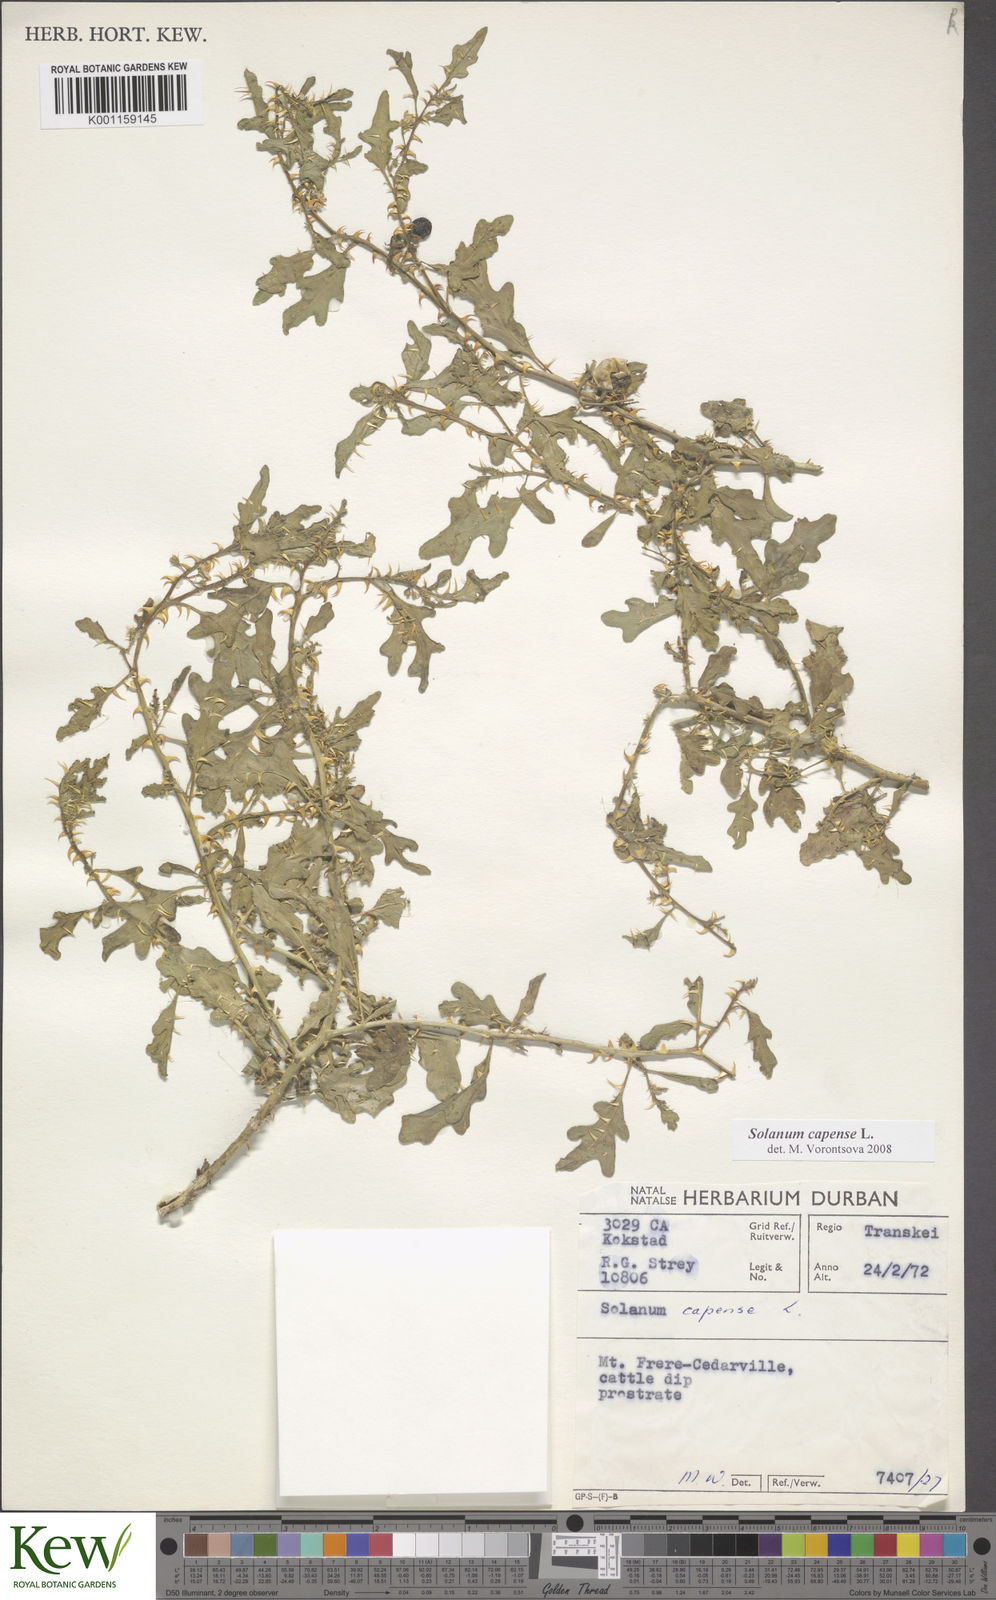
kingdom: Plantae
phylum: Tracheophyta
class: Magnoliopsida
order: Solanales
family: Solanaceae
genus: Solanum
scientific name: Solanum capense
